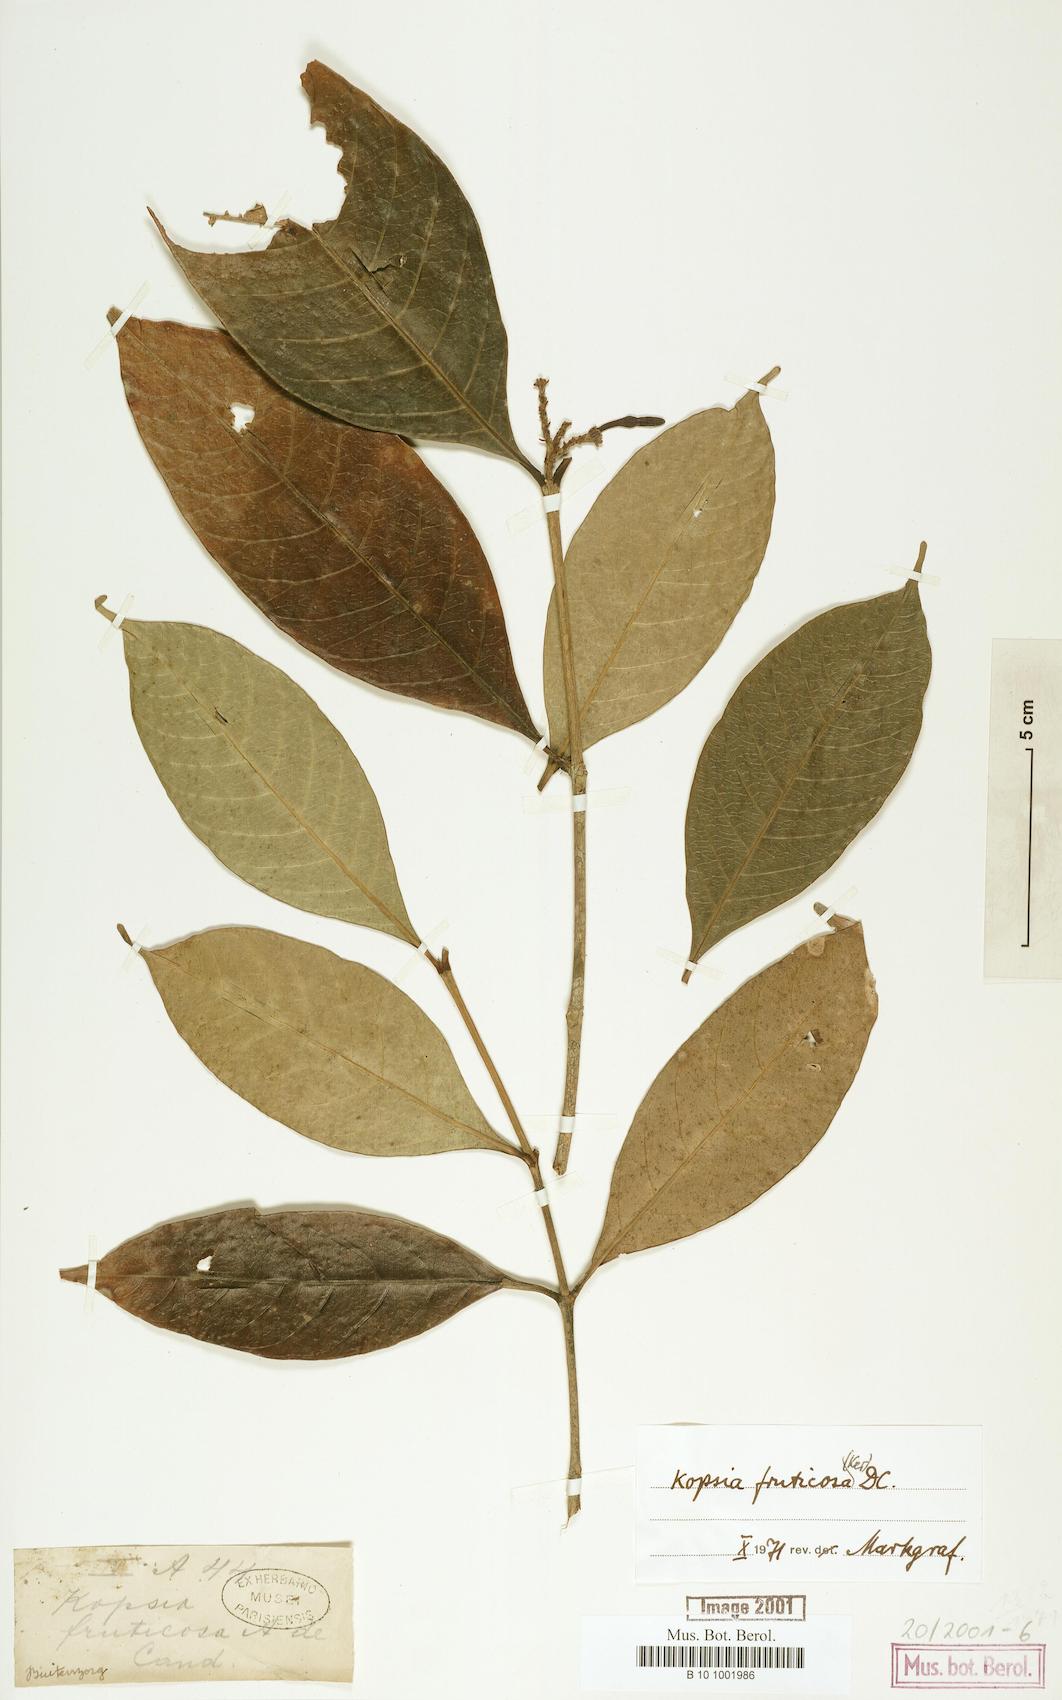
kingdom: Plantae
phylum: Tracheophyta
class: Magnoliopsida
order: Gentianales
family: Apocynaceae
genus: Kopsia
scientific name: Kopsia fruticosa
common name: Shrub-vinca
